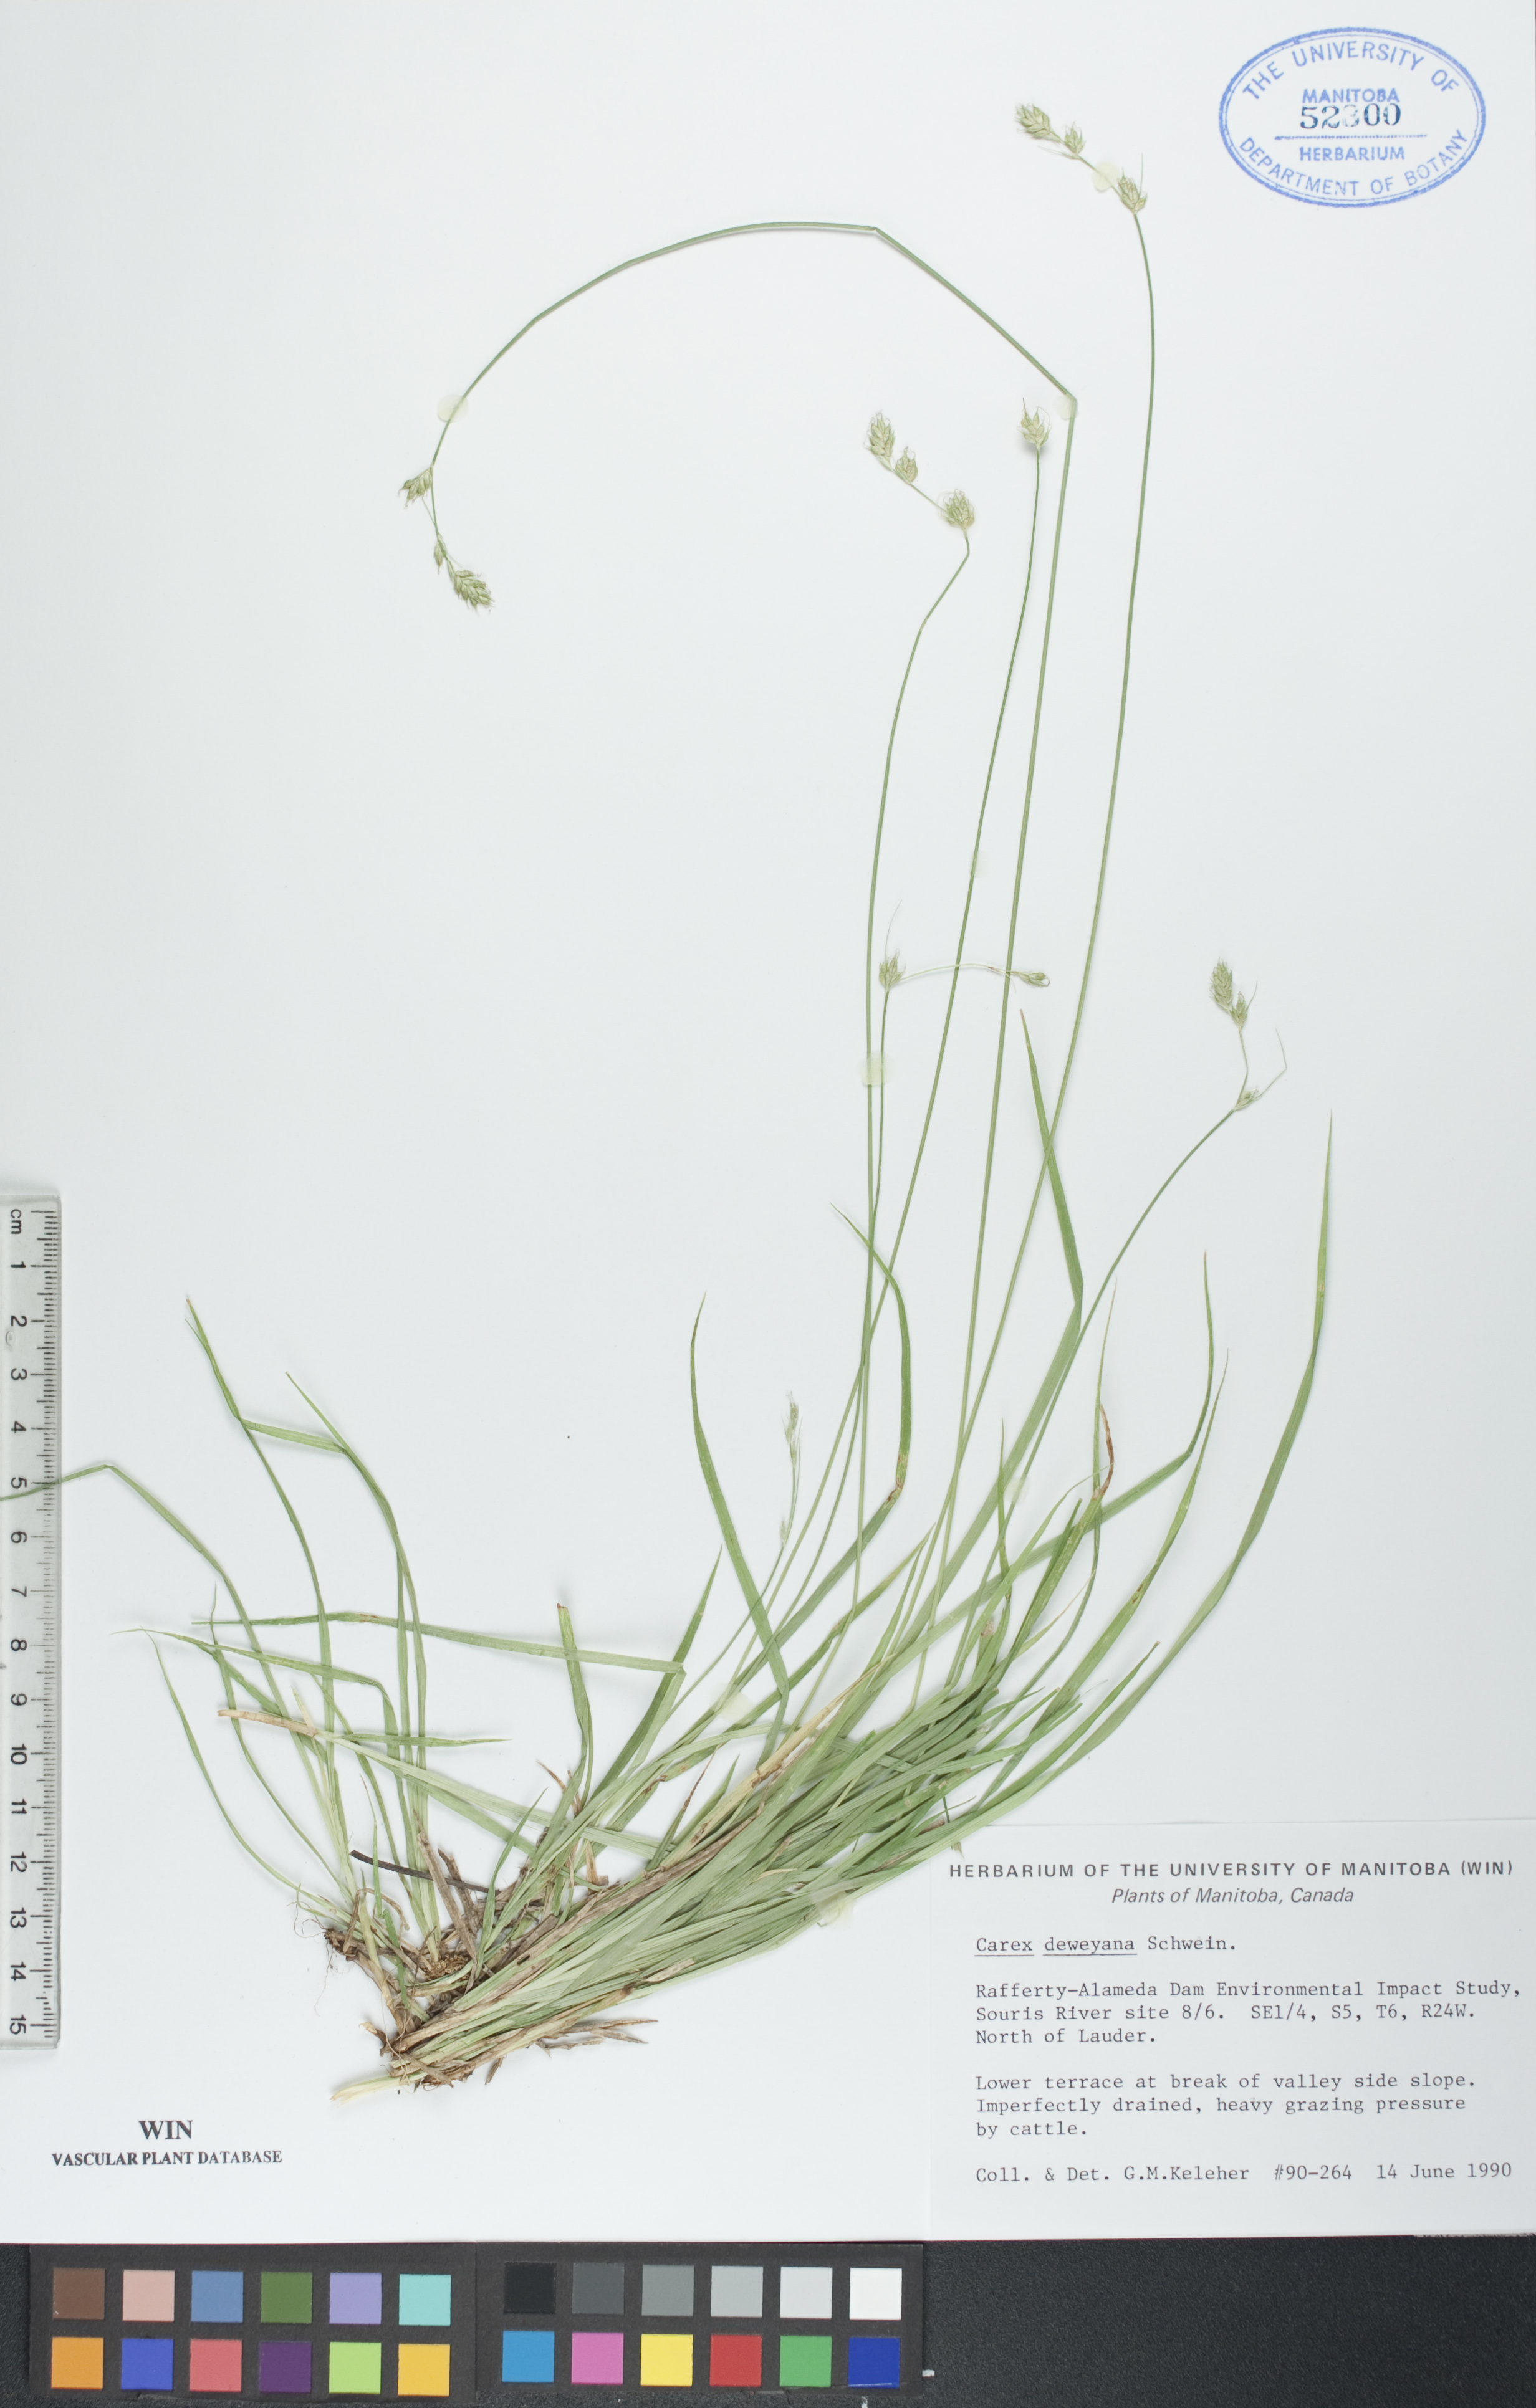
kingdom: Plantae
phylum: Tracheophyta
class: Liliopsida
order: Poales
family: Cyperaceae
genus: Carex
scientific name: Carex deweyana
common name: Dewey's sedge
